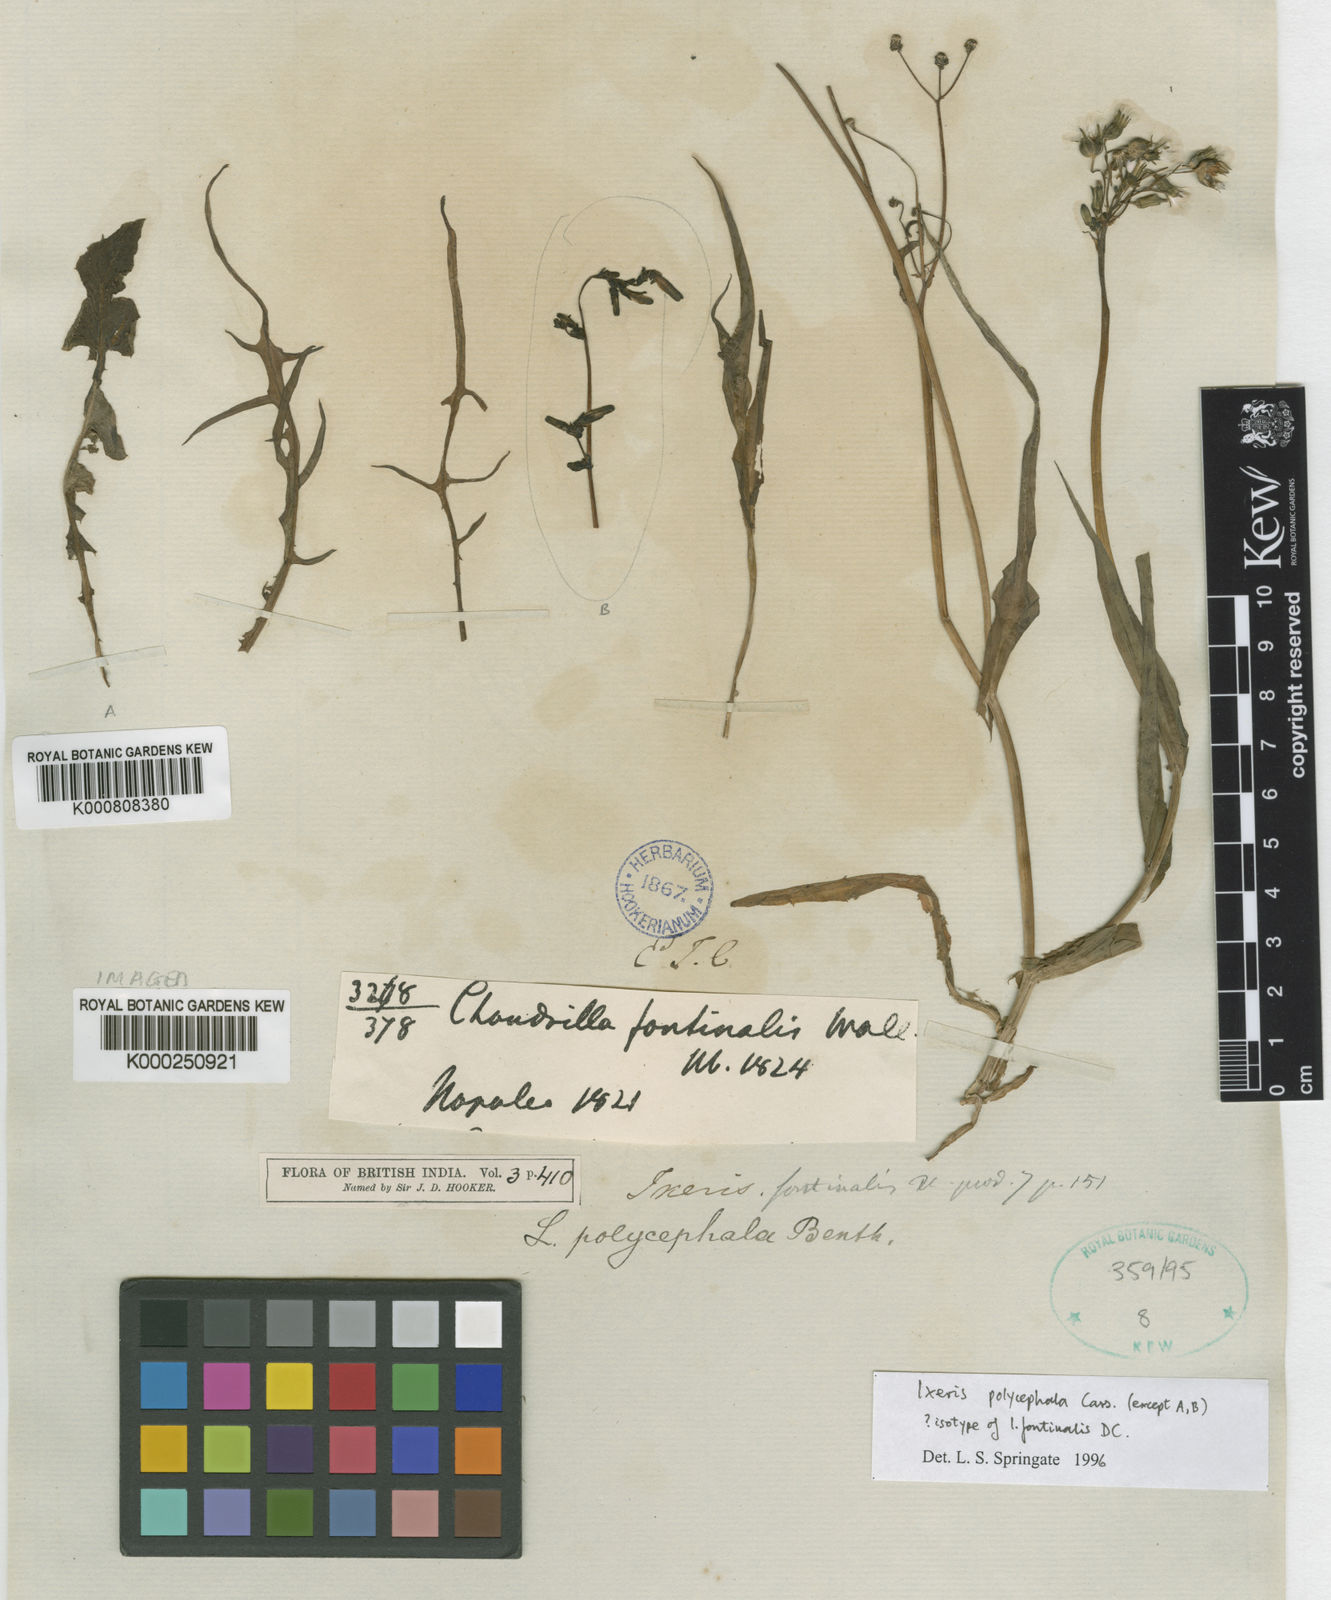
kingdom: Plantae
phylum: Tracheophyta
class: Magnoliopsida
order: Asterales
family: Asteraceae
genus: Ixeris
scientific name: Ixeris
